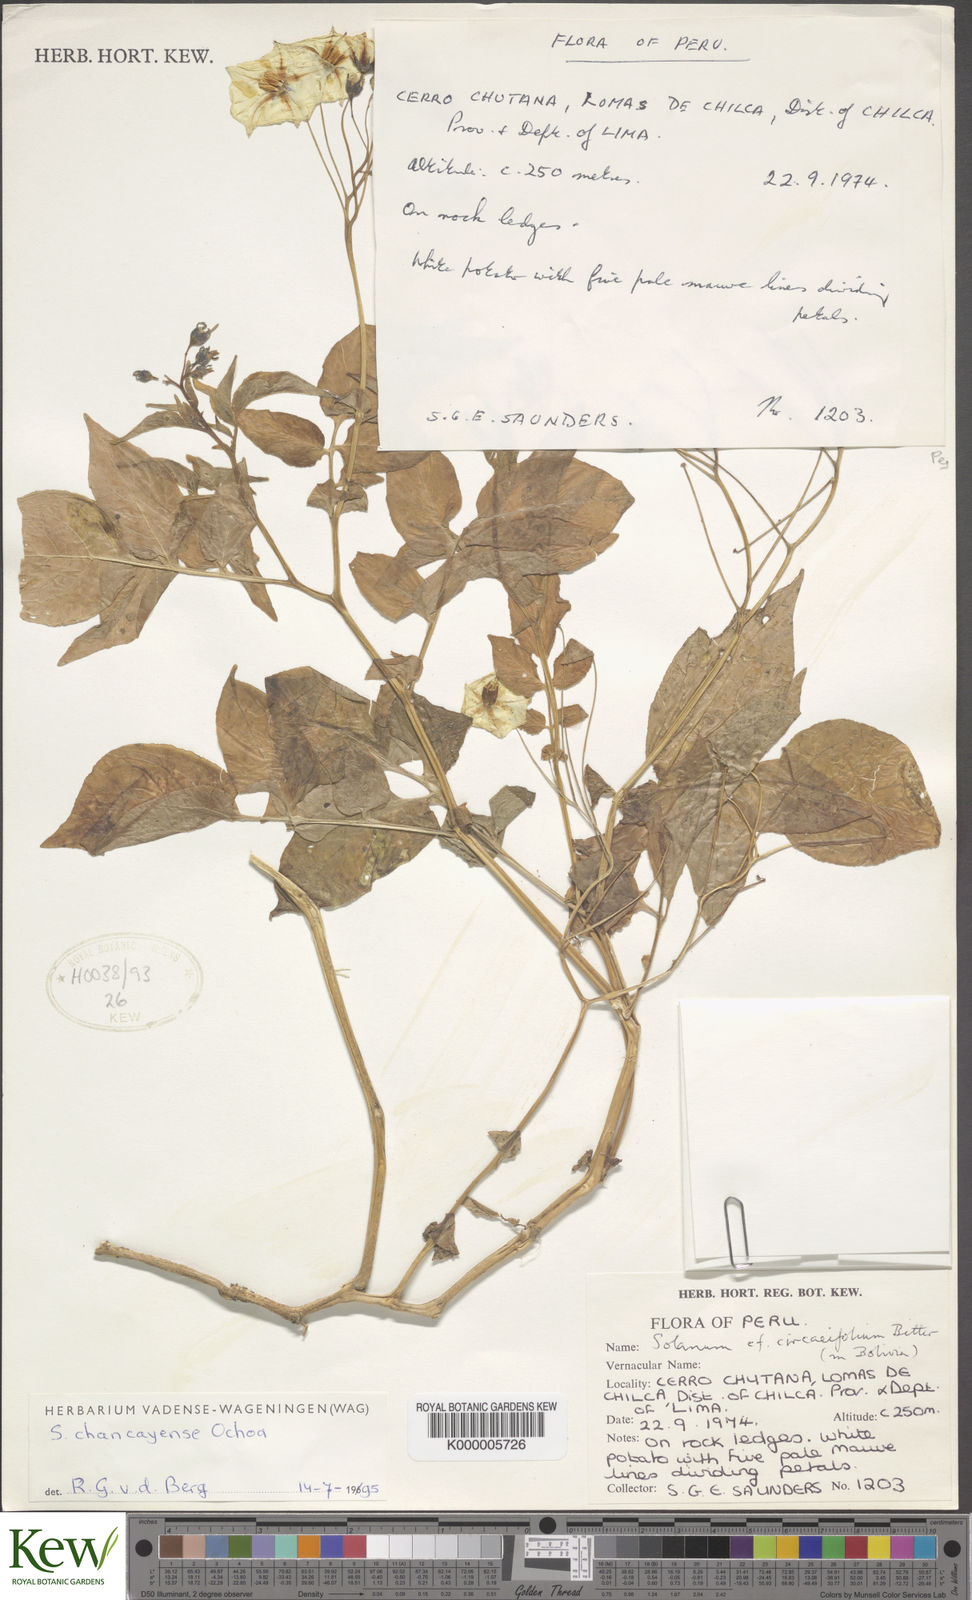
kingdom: Plantae
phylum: Tracheophyta
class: Magnoliopsida
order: Solanales
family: Solanaceae
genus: Solanum
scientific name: Solanum stipuloideum
